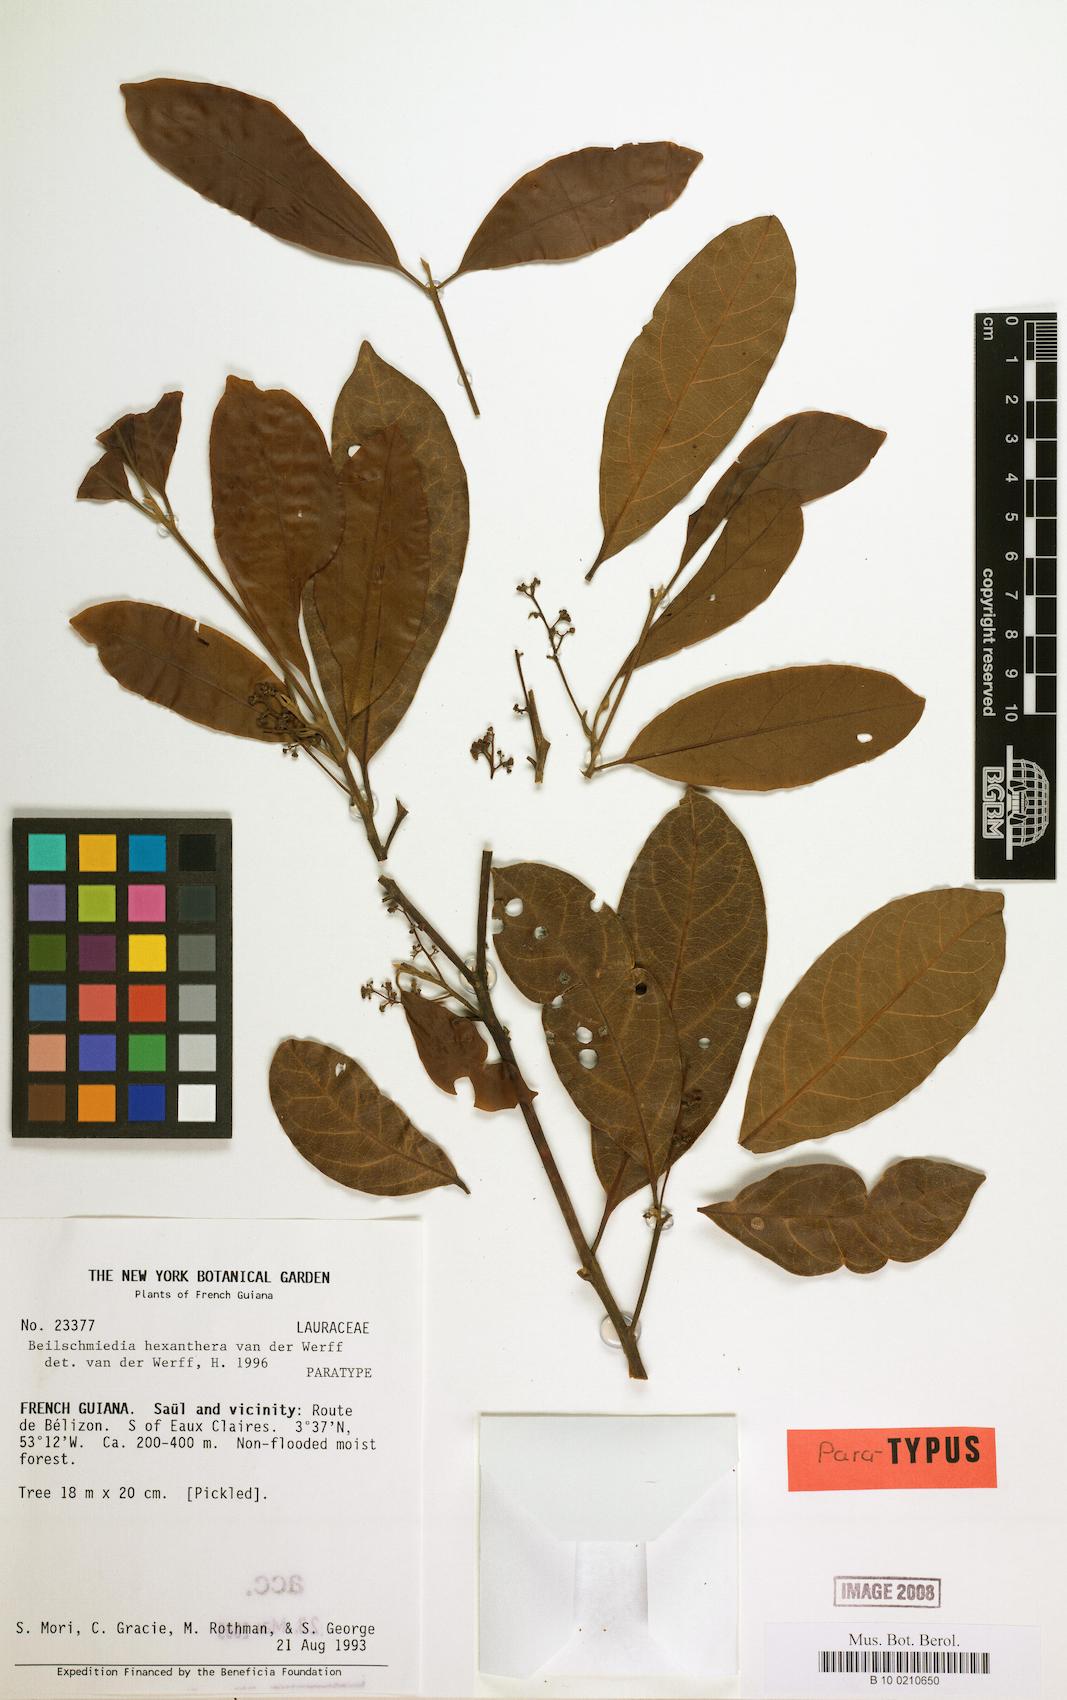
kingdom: Plantae
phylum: Tracheophyta
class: Magnoliopsida
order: Laurales
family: Lauraceae
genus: Beilschmiedia
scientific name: Beilschmiedia hexanthera
